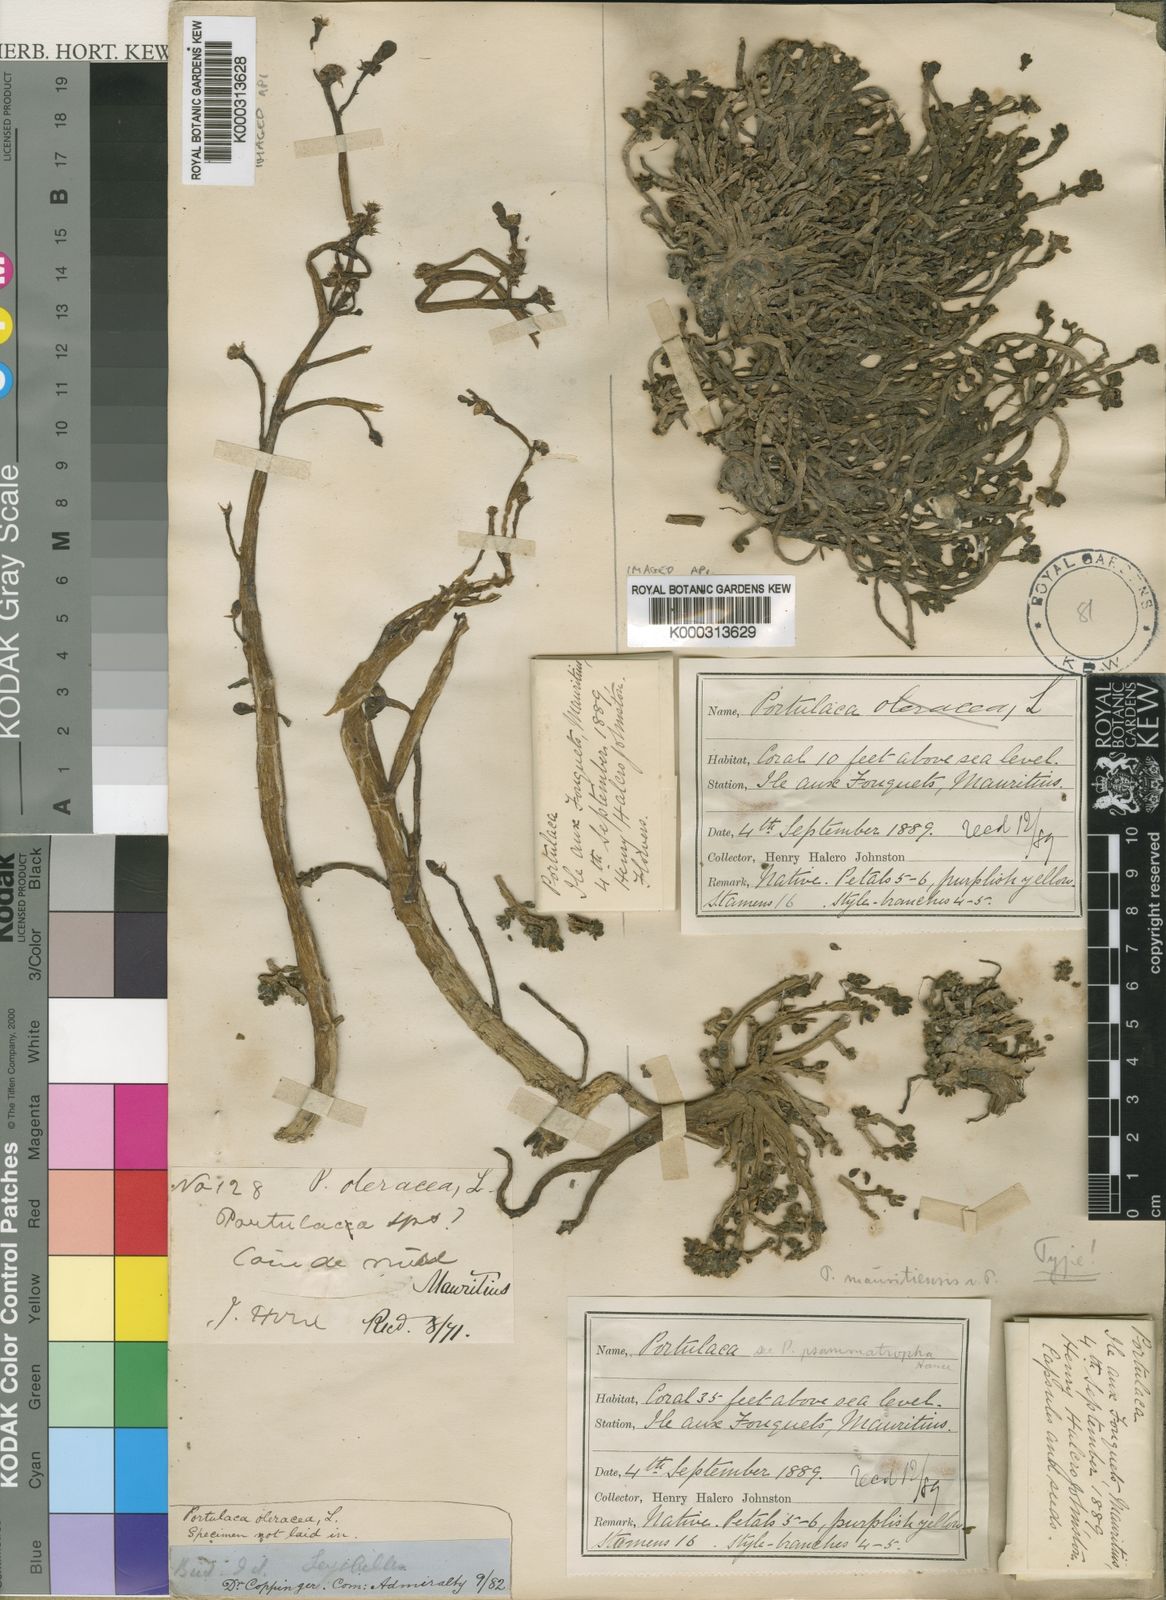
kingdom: Plantae
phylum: Tracheophyta
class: Magnoliopsida
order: Caryophyllales
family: Portulacaceae
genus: Portulaca
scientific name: Portulaca oleracea
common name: Common purslane
